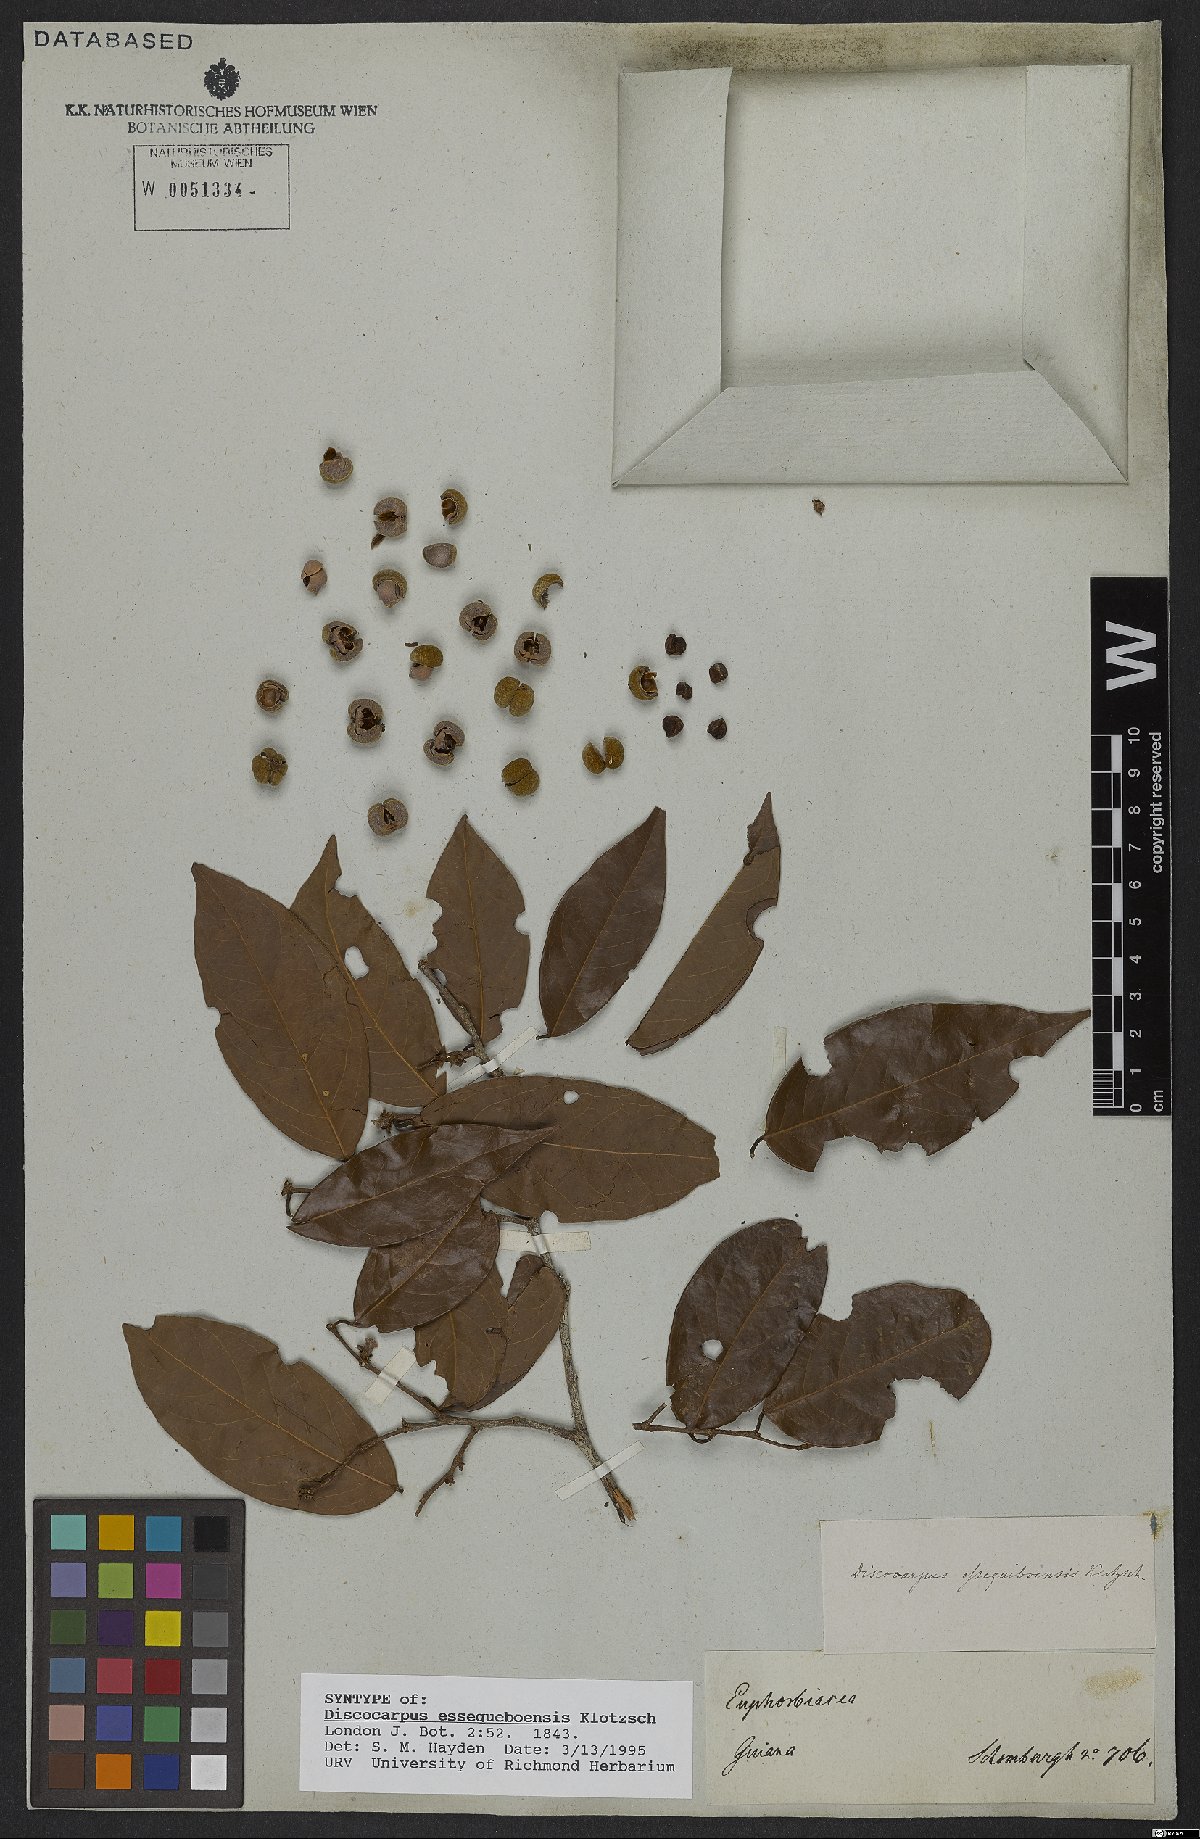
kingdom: Plantae
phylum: Tracheophyta
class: Magnoliopsida
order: Malpighiales
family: Phyllanthaceae
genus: Discocarpus
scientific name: Discocarpus essequeboensis
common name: Sqaure-wood
